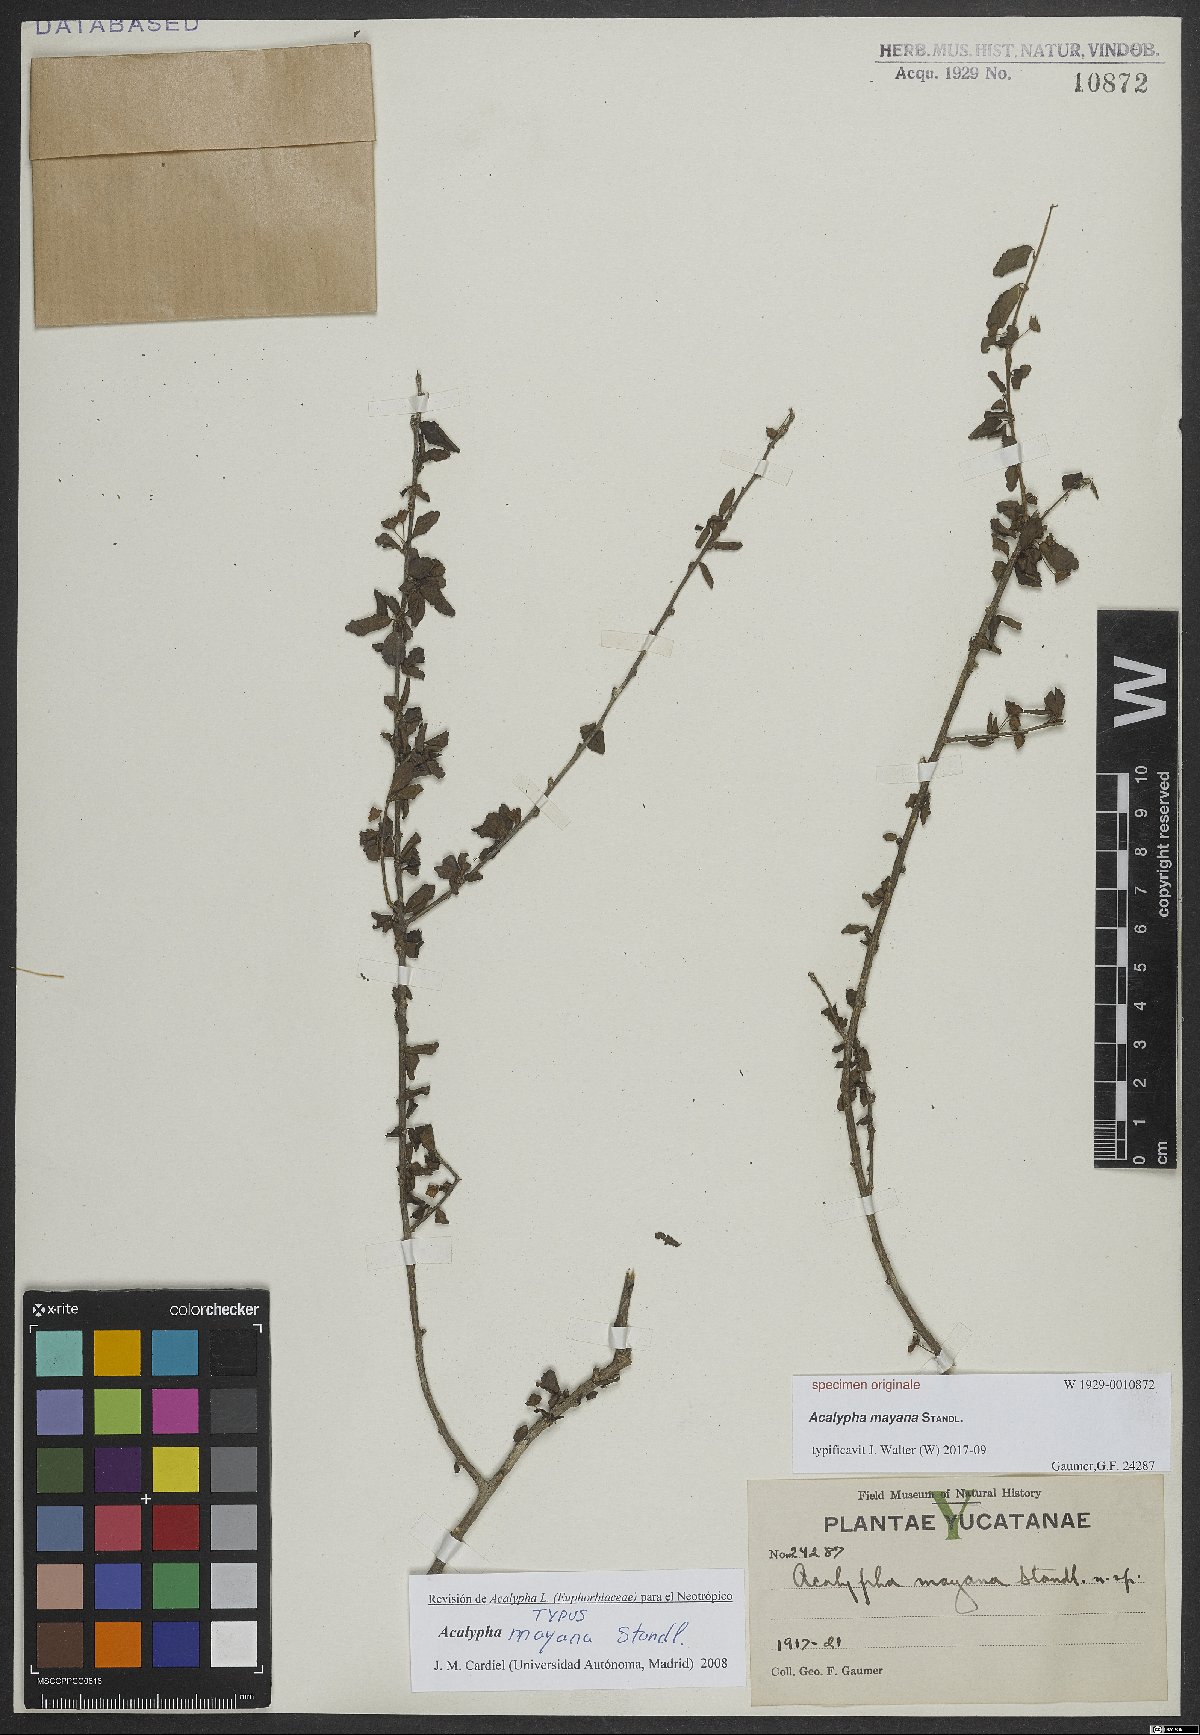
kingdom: Plantae
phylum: Tracheophyta
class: Magnoliopsida
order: Malpighiales
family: Euphorbiaceae
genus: Acalypha
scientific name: Acalypha
